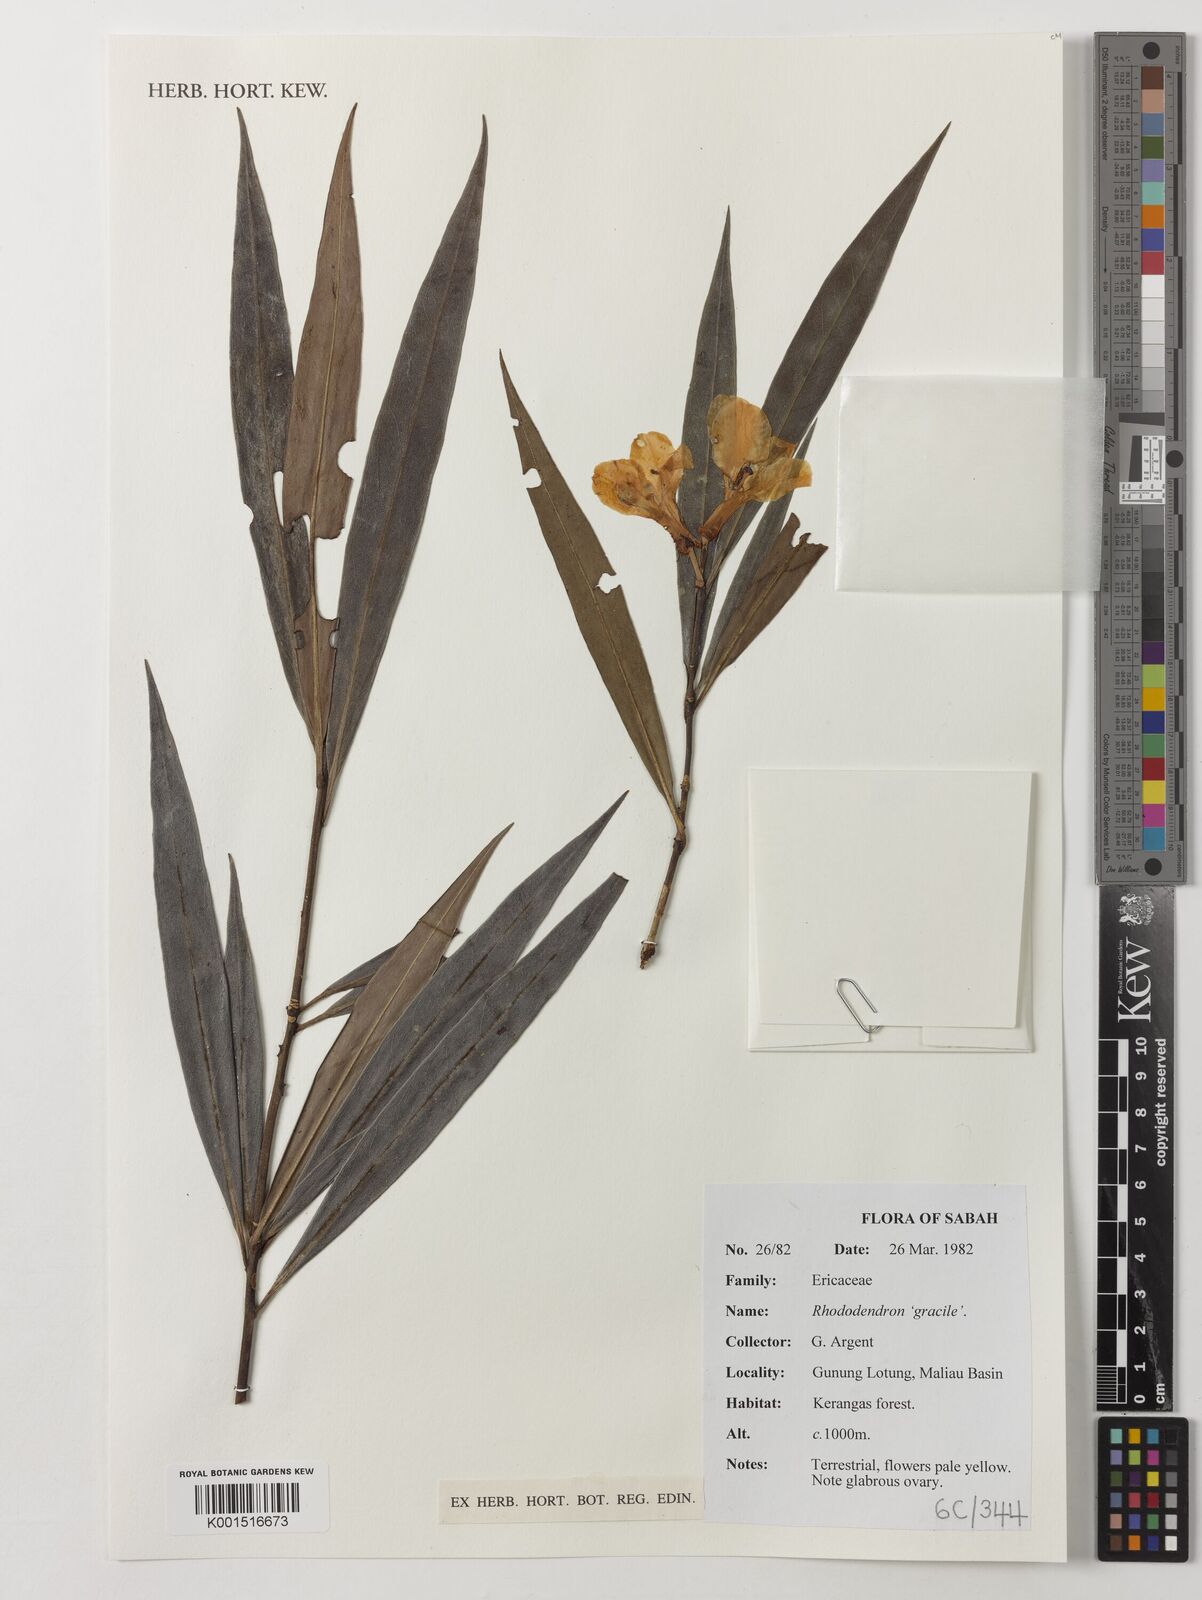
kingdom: Plantae
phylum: Tracheophyta
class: Magnoliopsida
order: Ericales
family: Ericaceae
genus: Rhododendron
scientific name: Rhododendron javanicum
